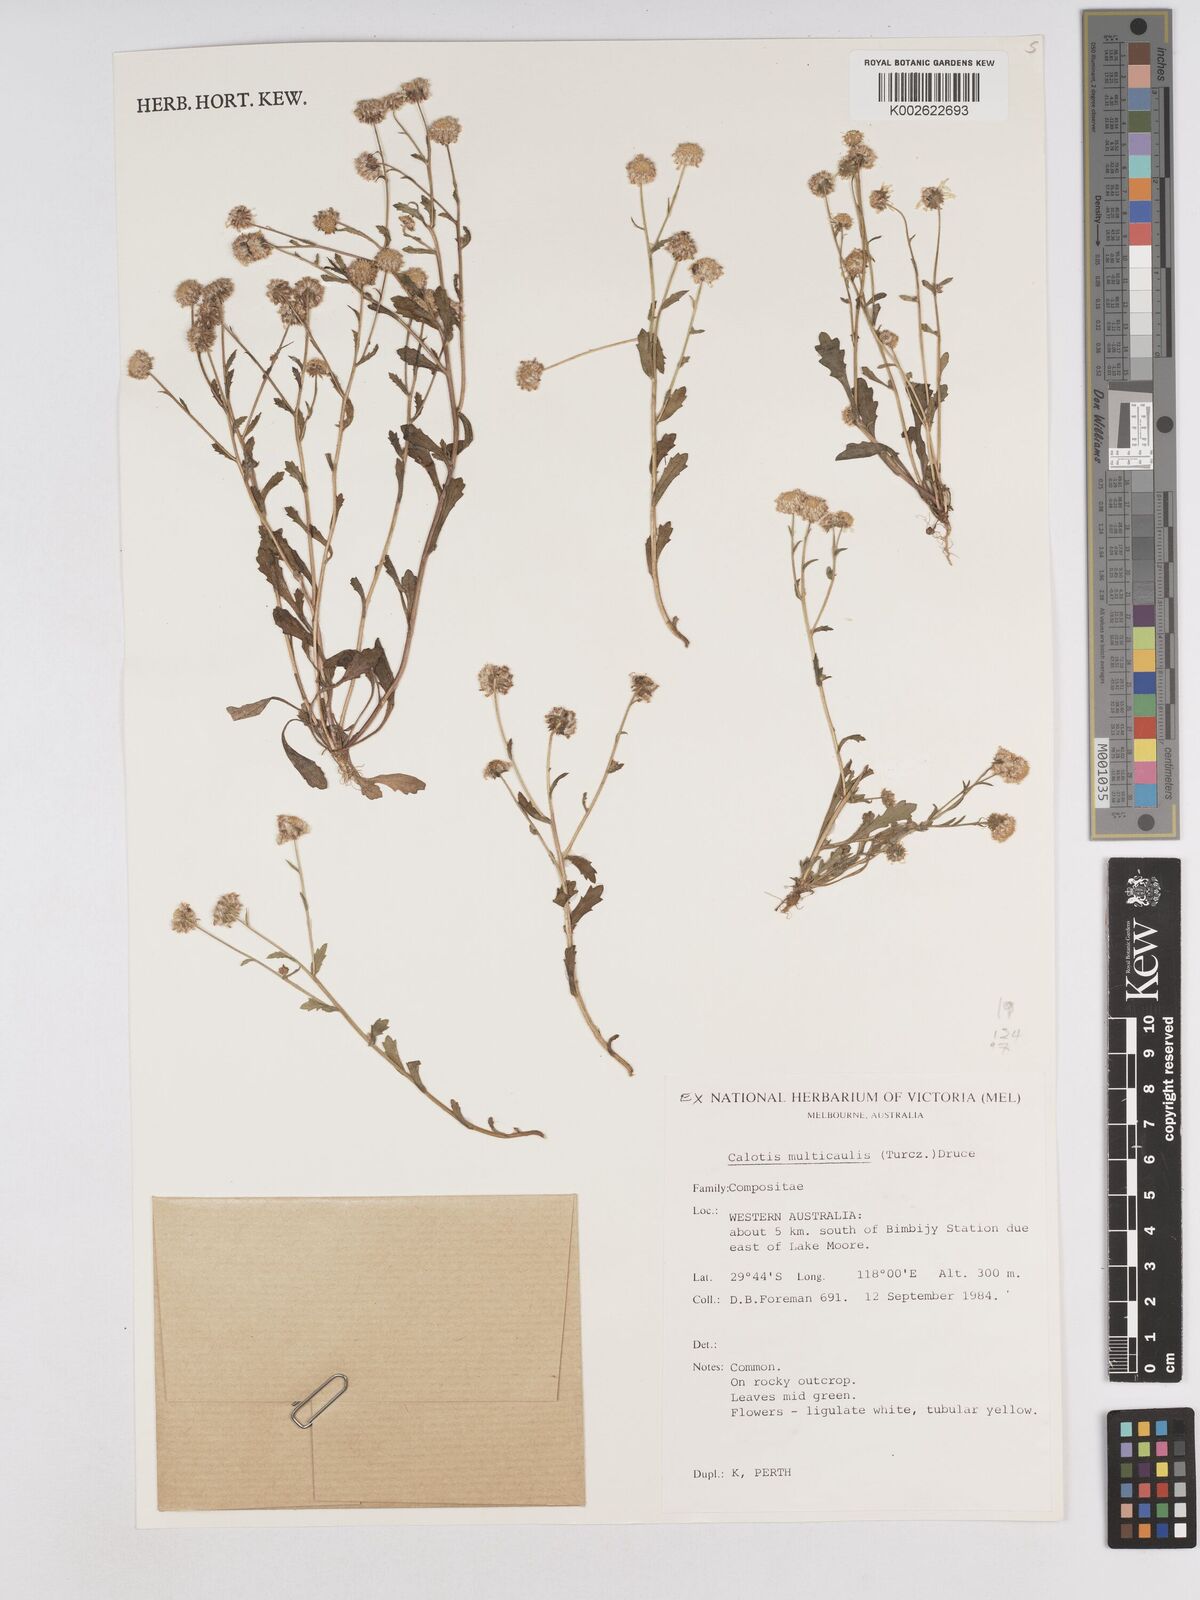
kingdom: Plantae
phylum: Tracheophyta
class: Magnoliopsida
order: Asterales
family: Asteraceae
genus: Calotis
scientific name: Calotis multicaulis
